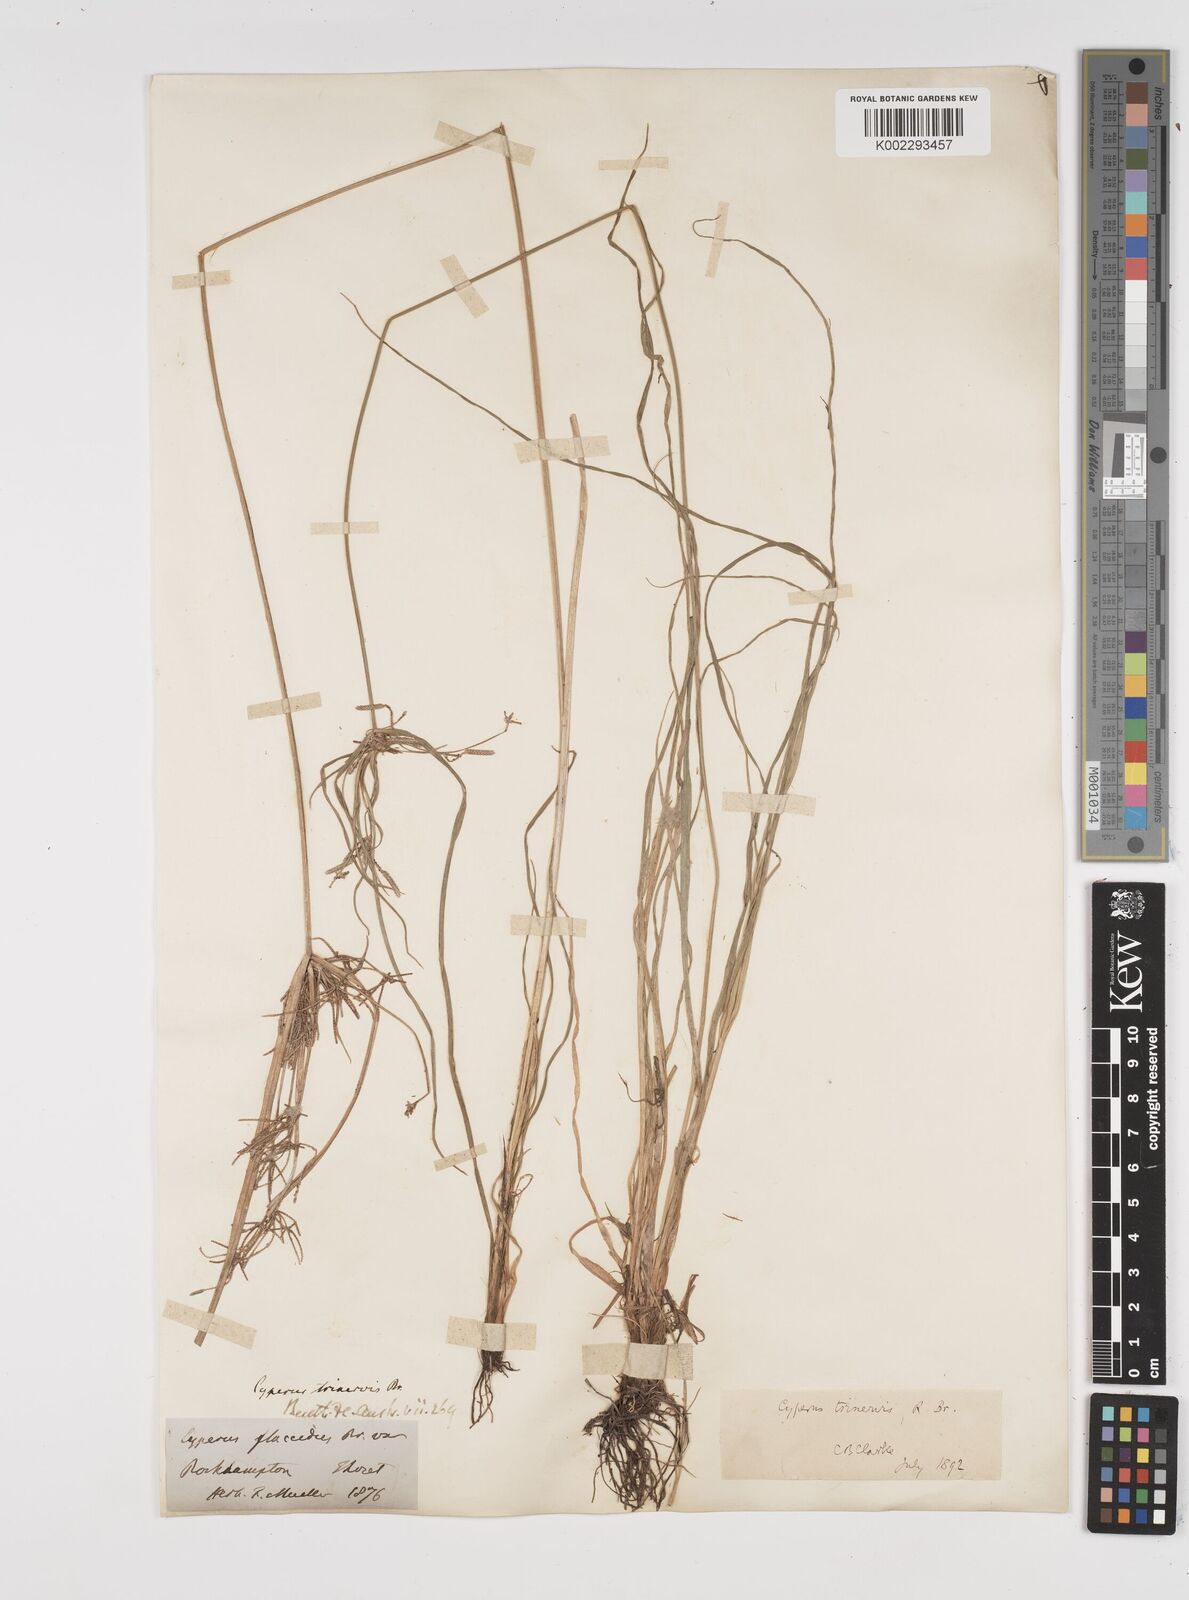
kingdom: Plantae
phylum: Tracheophyta
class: Liliopsida
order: Poales
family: Cyperaceae
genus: Cyperus
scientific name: Cyperus trinervis
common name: Australian flatsedge
